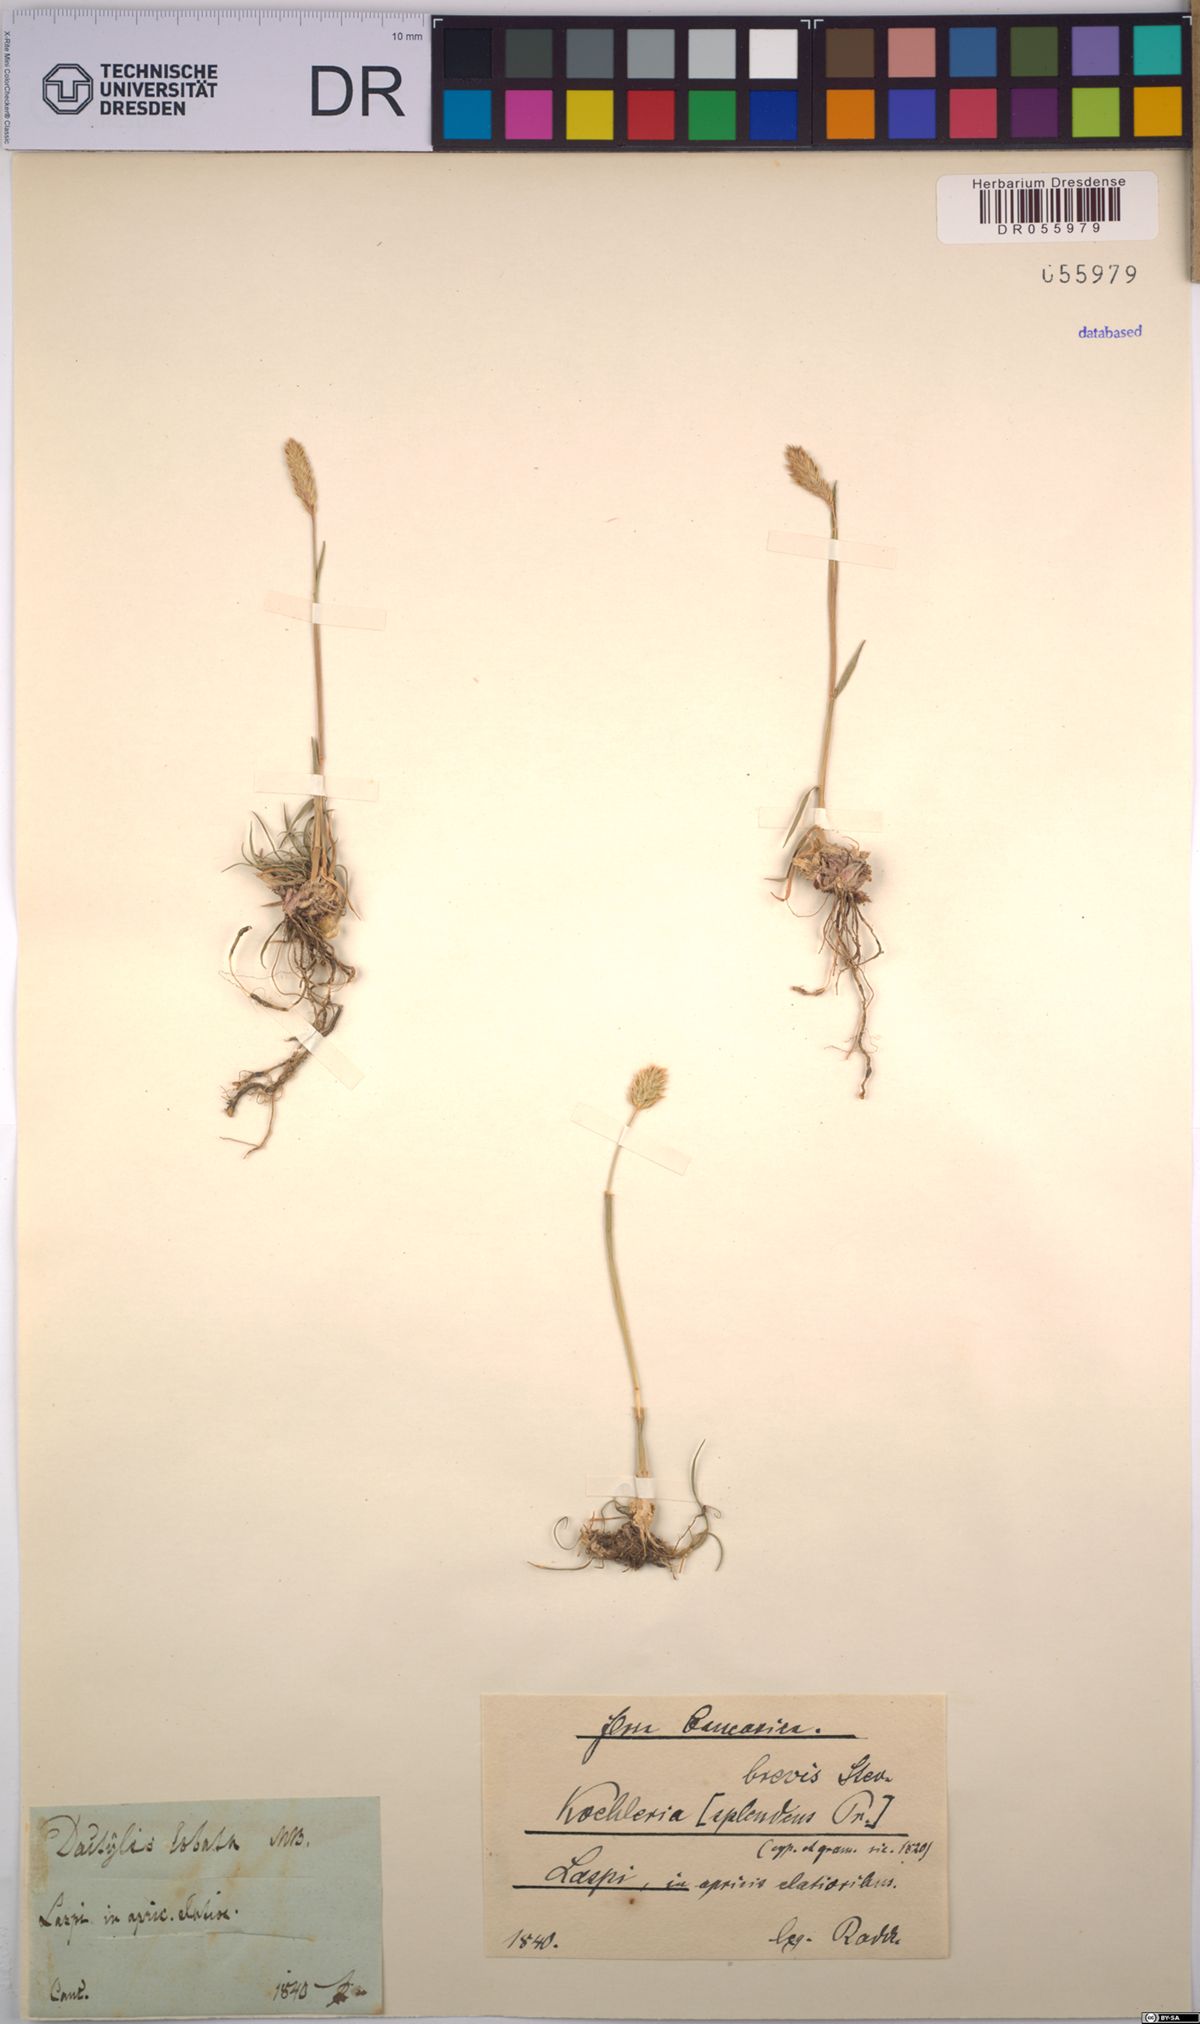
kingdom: Plantae
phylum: Tracheophyta
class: Liliopsida
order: Poales
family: Poaceae
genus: Koeleria
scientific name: Koeleria brevis
